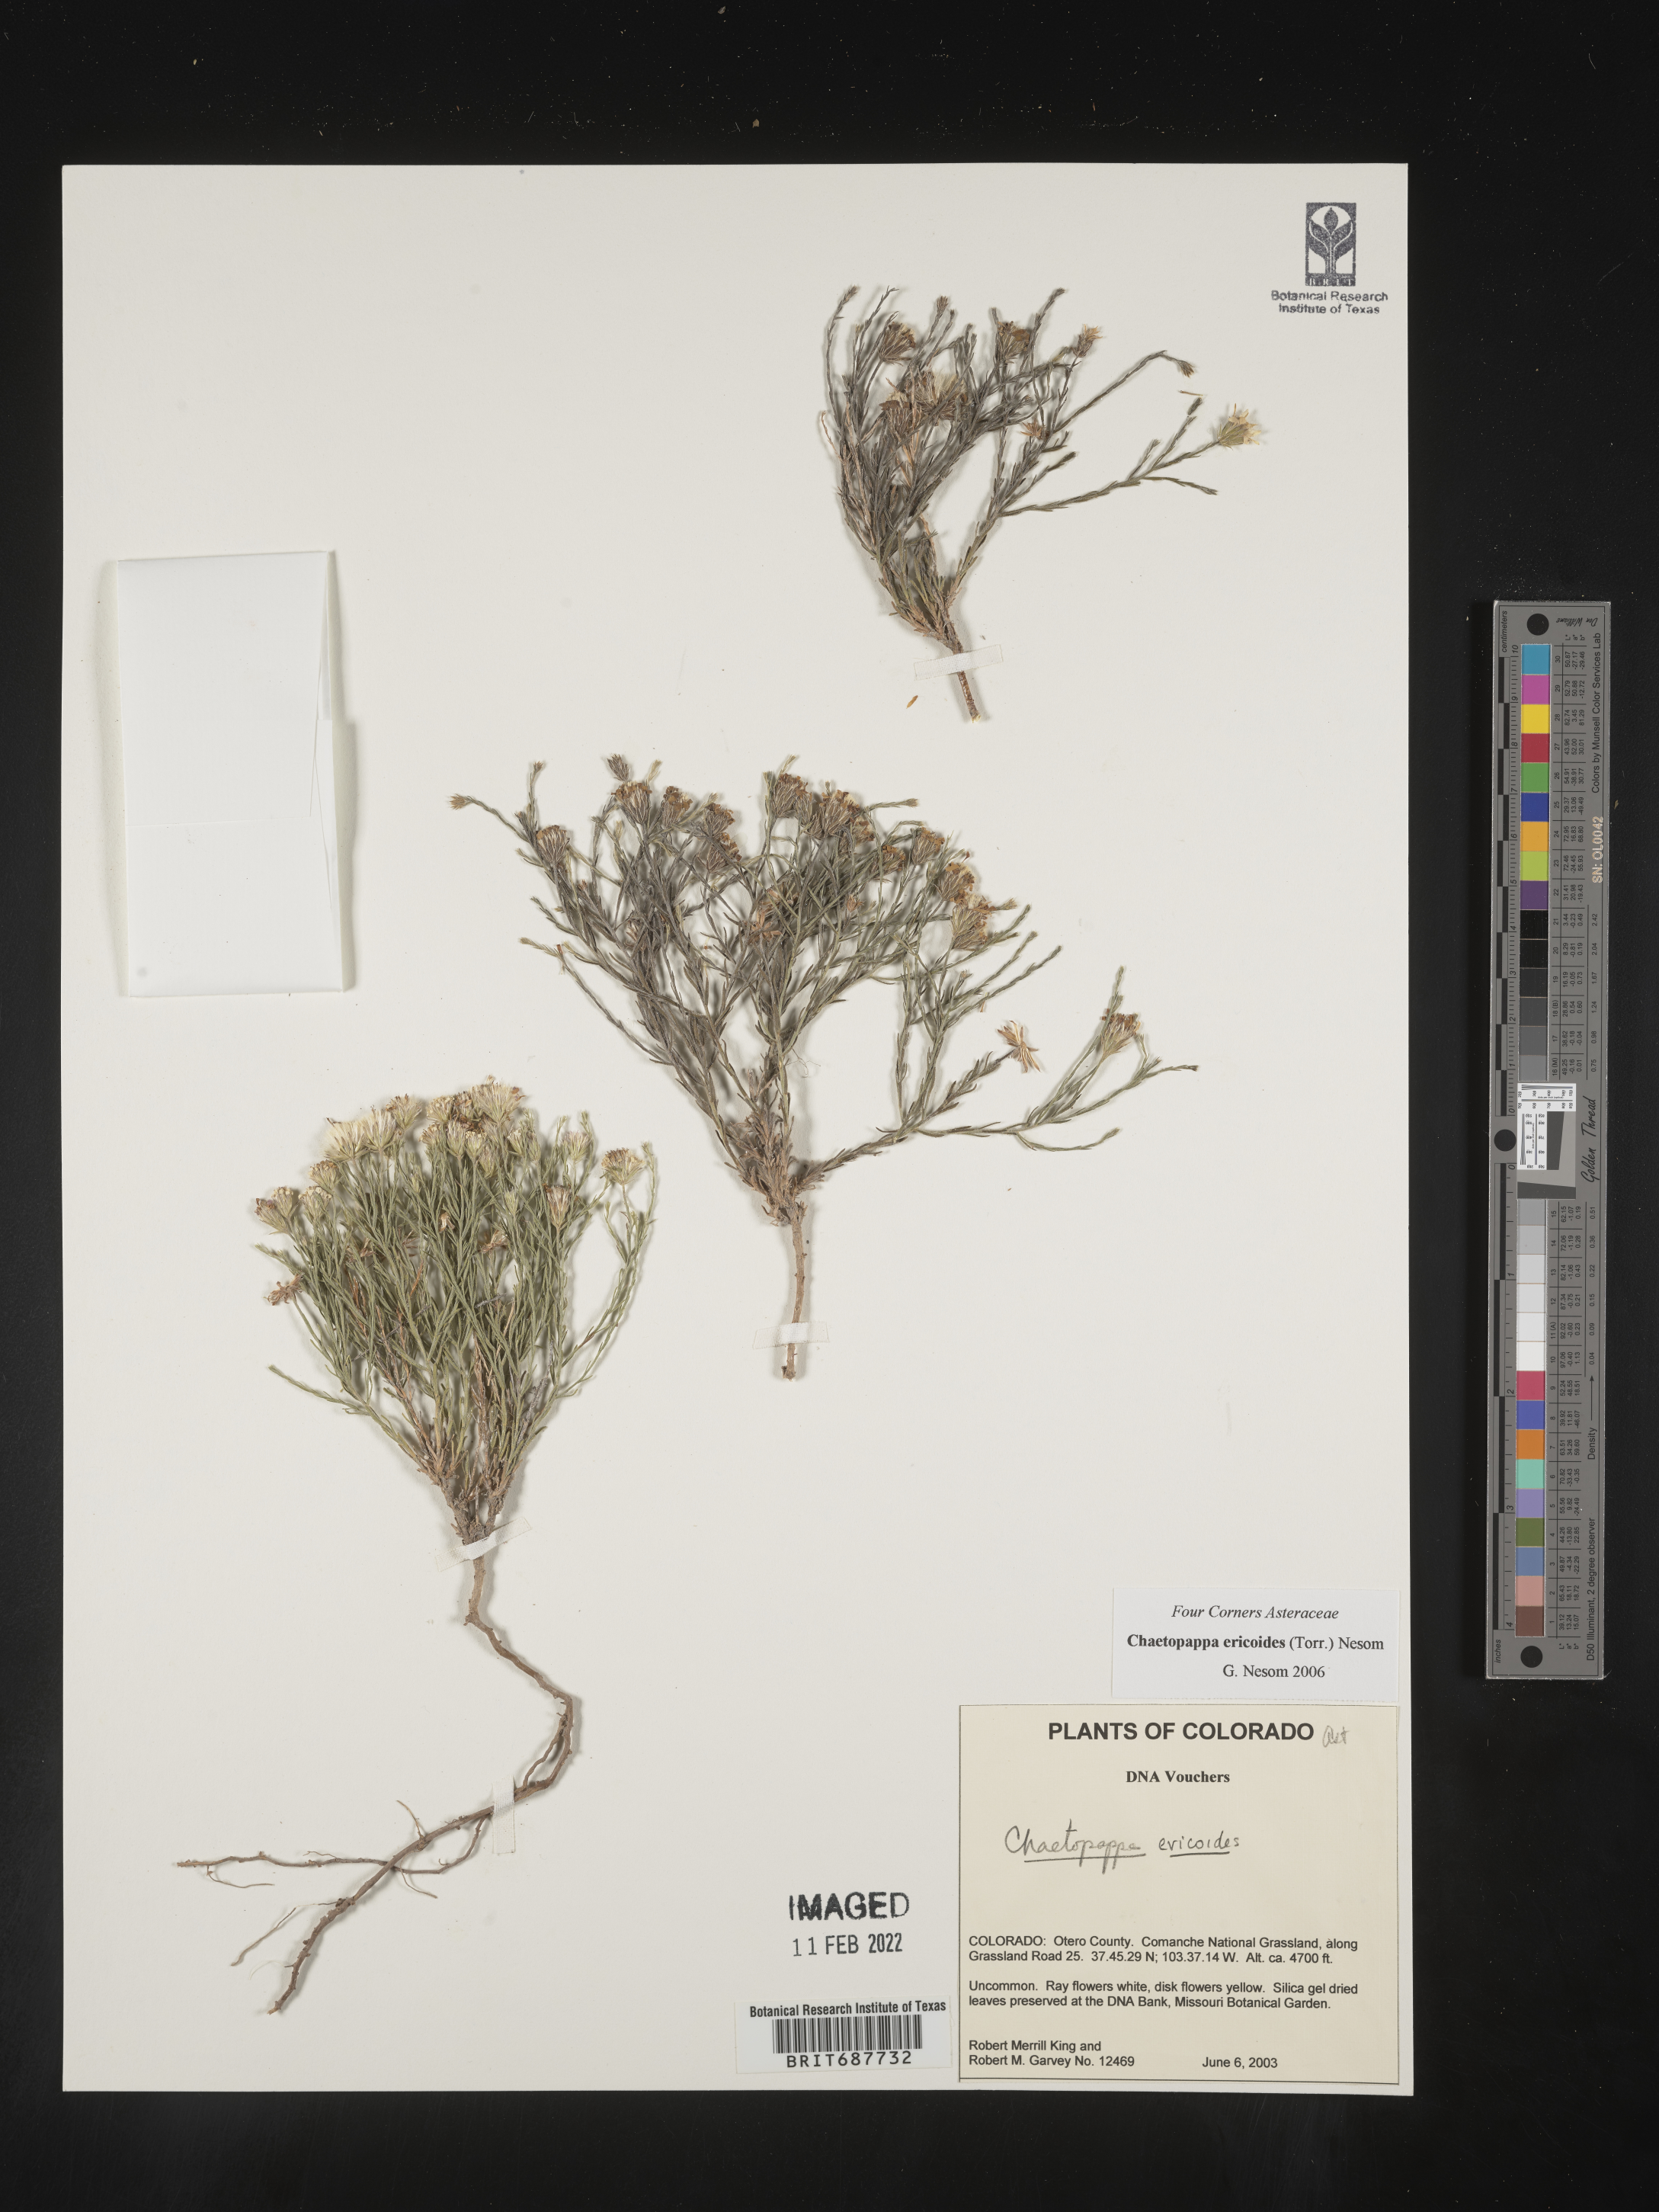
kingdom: Plantae
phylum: Tracheophyta
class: Magnoliopsida
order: Asterales
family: Asteraceae
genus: Chaetopappa
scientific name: Chaetopappa ericoides
